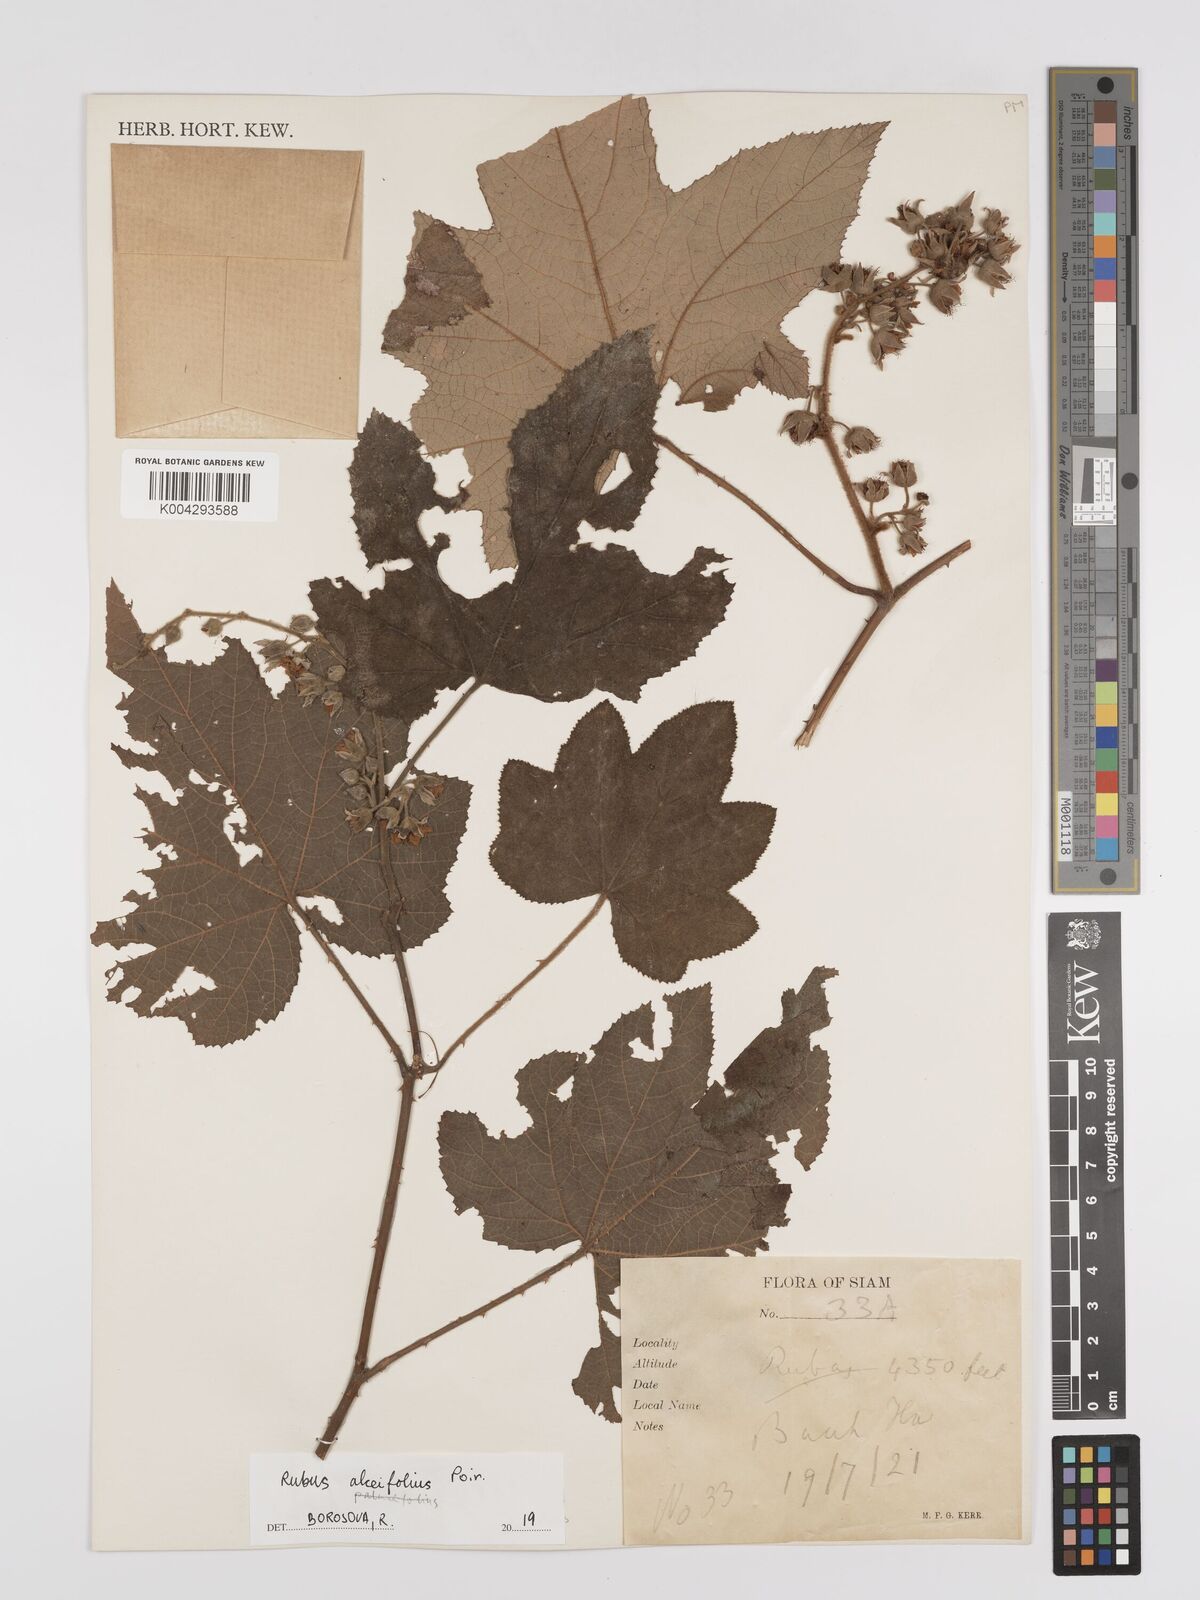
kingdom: Plantae
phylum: Tracheophyta
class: Magnoliopsida
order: Rosales
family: Rosaceae
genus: Rubus
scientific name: Rubus alceifolius
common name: Giant bramble
